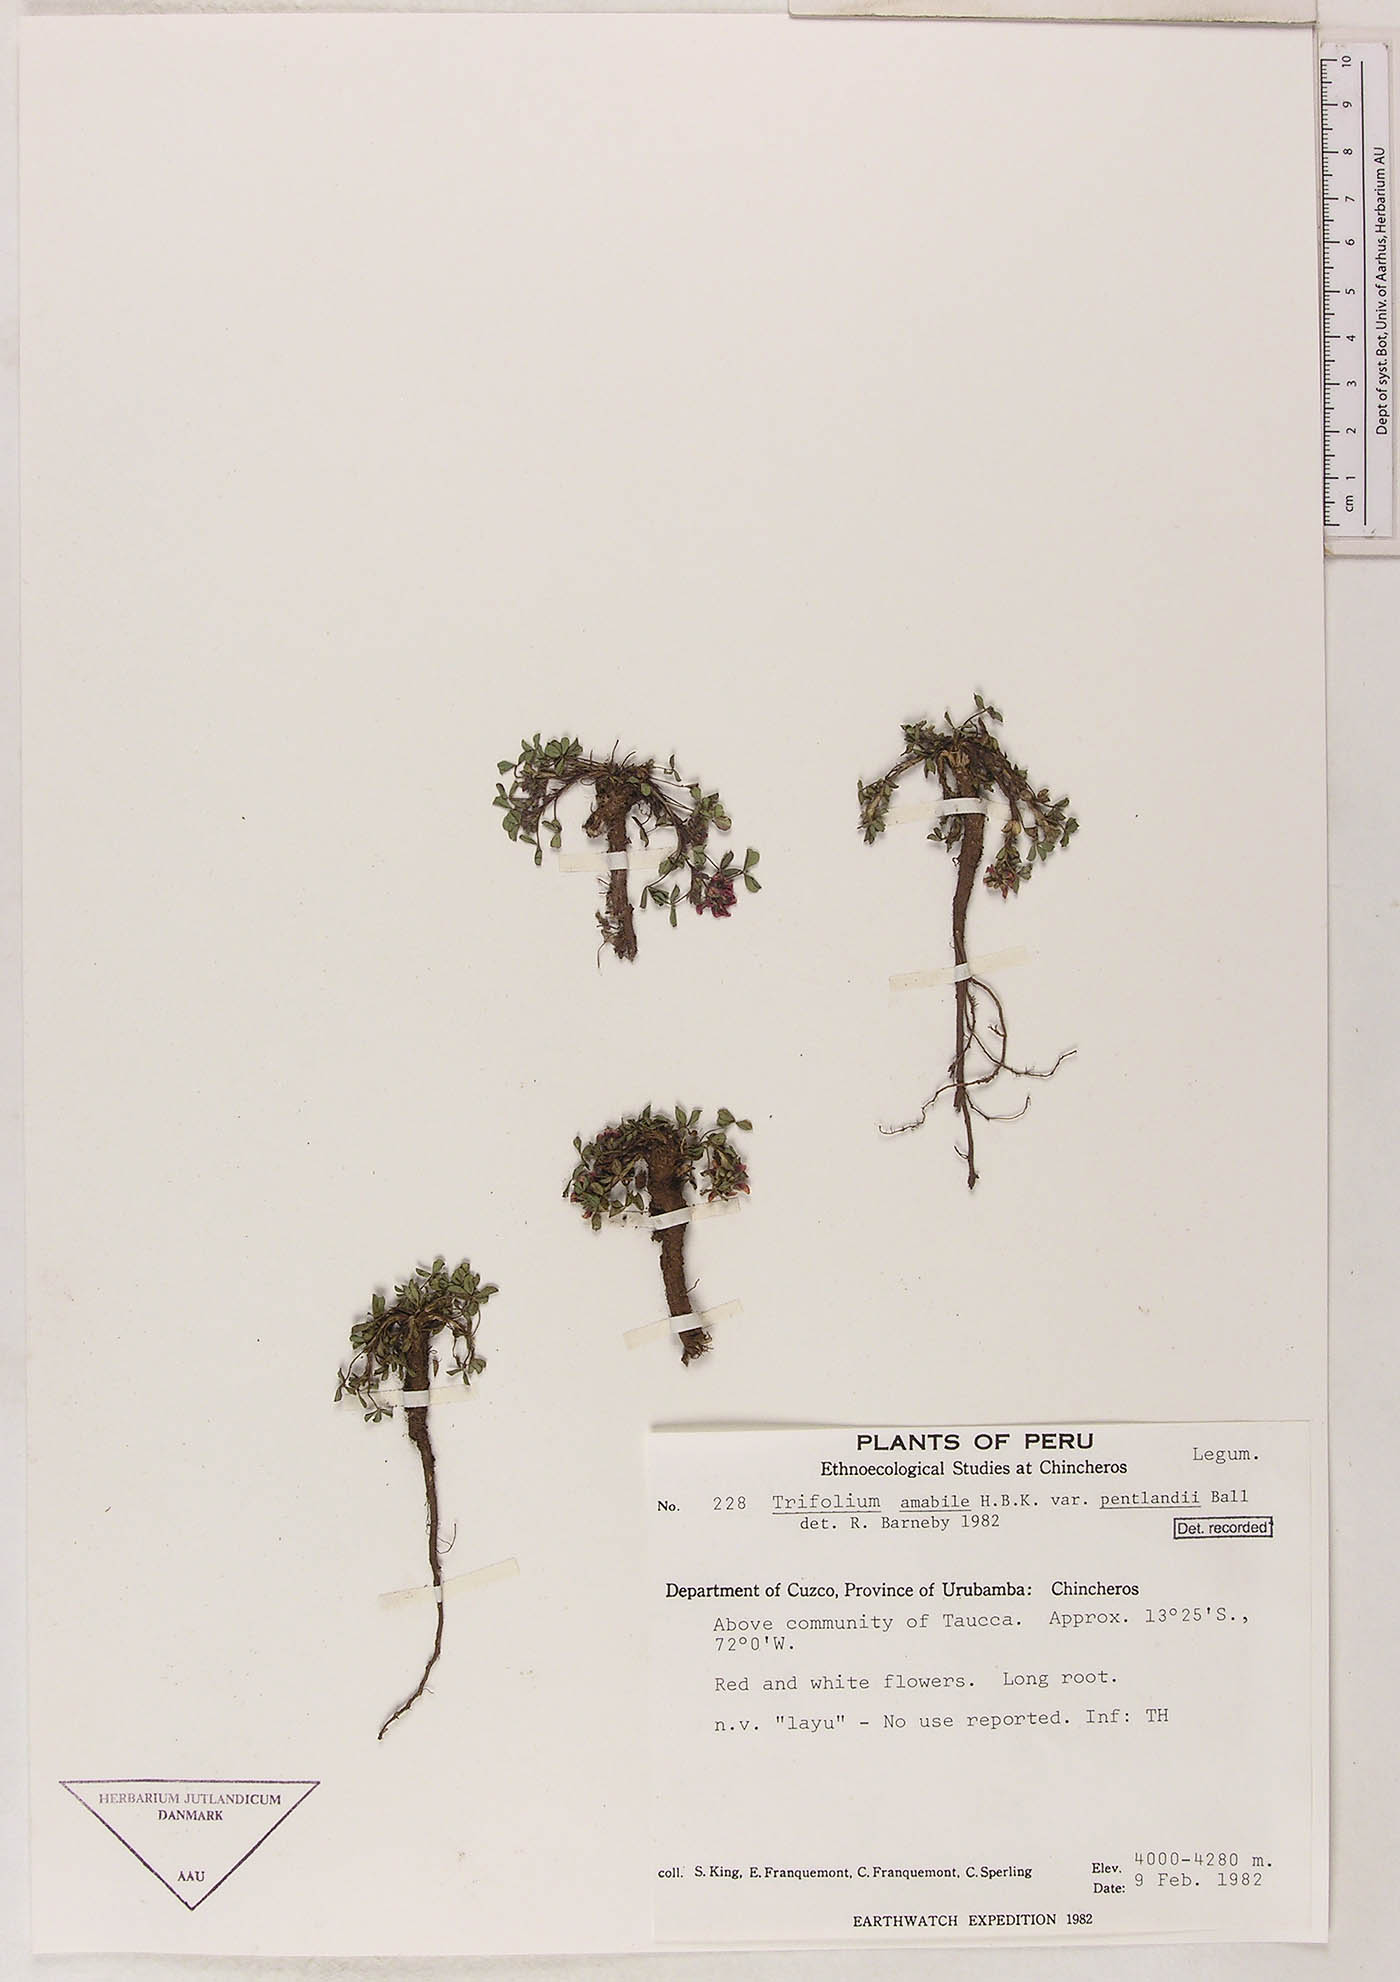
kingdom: Plantae
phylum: Tracheophyta
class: Magnoliopsida
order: Fabales
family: Fabaceae
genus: Trifolium
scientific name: Trifolium peruvianum
